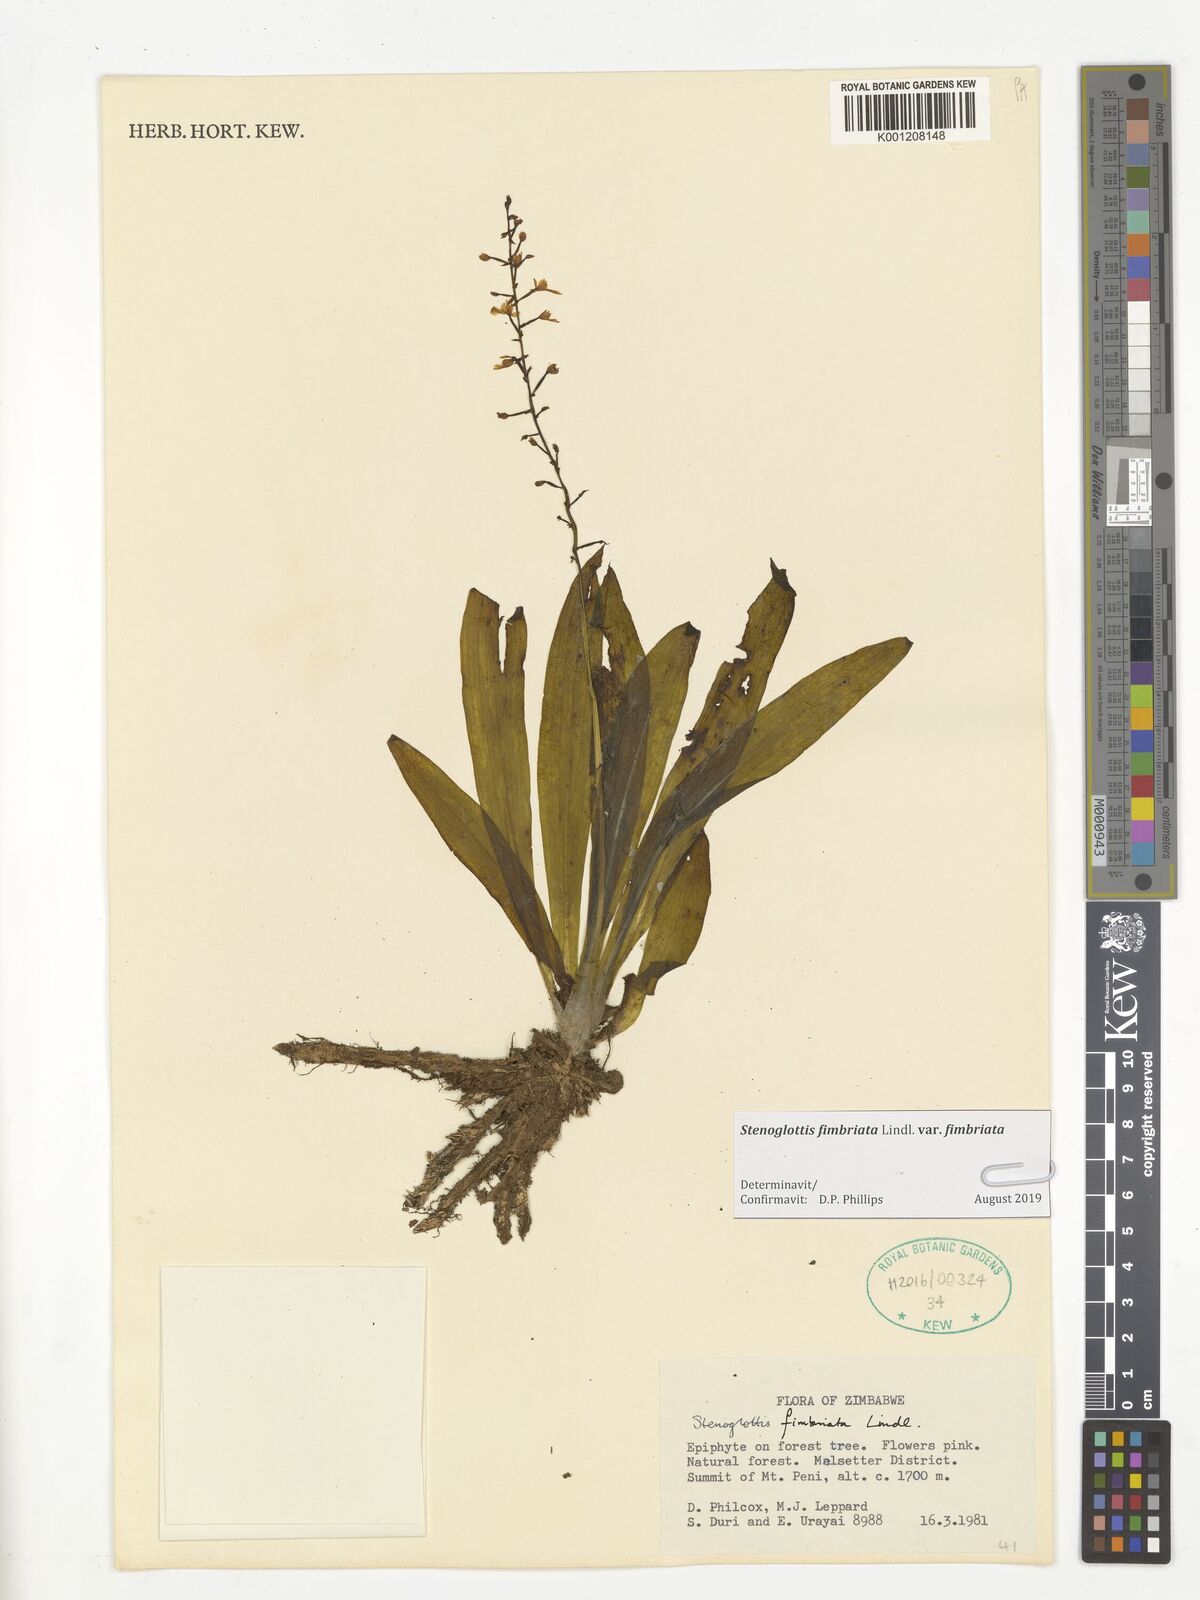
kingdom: Plantae
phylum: Tracheophyta
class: Liliopsida
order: Asparagales
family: Orchidaceae
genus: Stenoglottis
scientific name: Stenoglottis fimbriata
